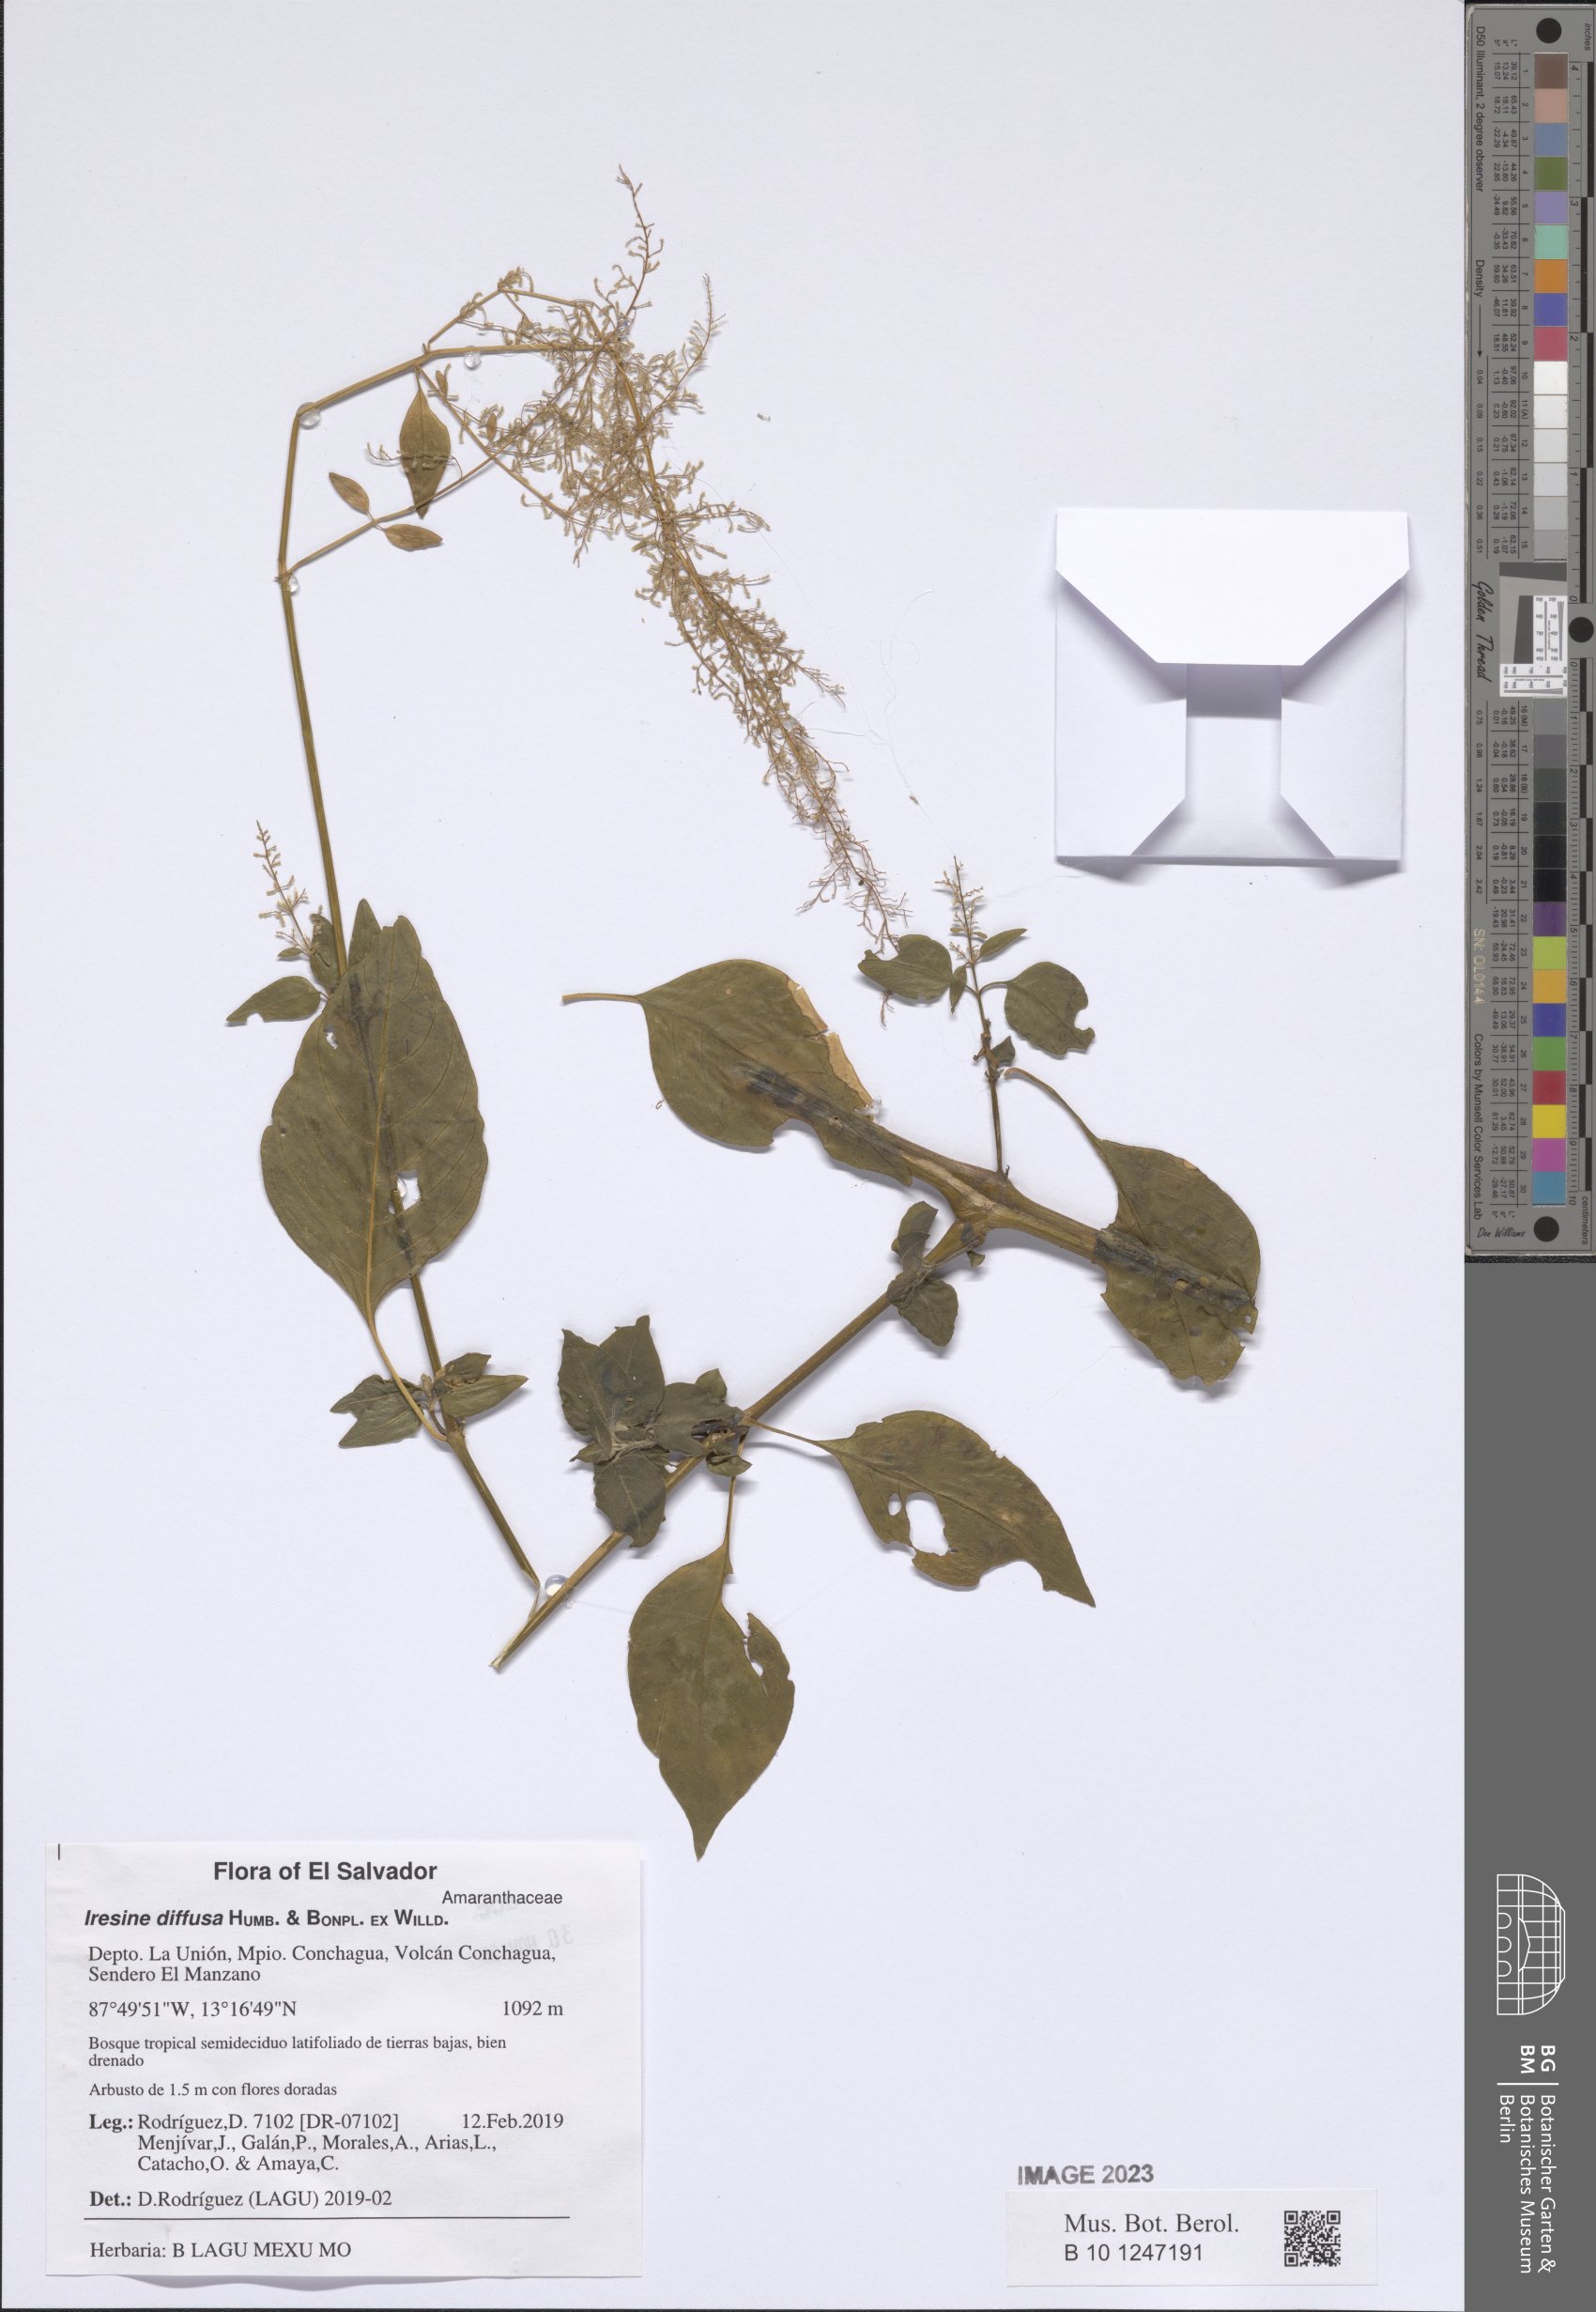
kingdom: Plantae
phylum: Tracheophyta
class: Magnoliopsida
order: Caryophyllales
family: Amaranthaceae
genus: Iresine
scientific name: Iresine diffusa
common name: Juba's-bush
